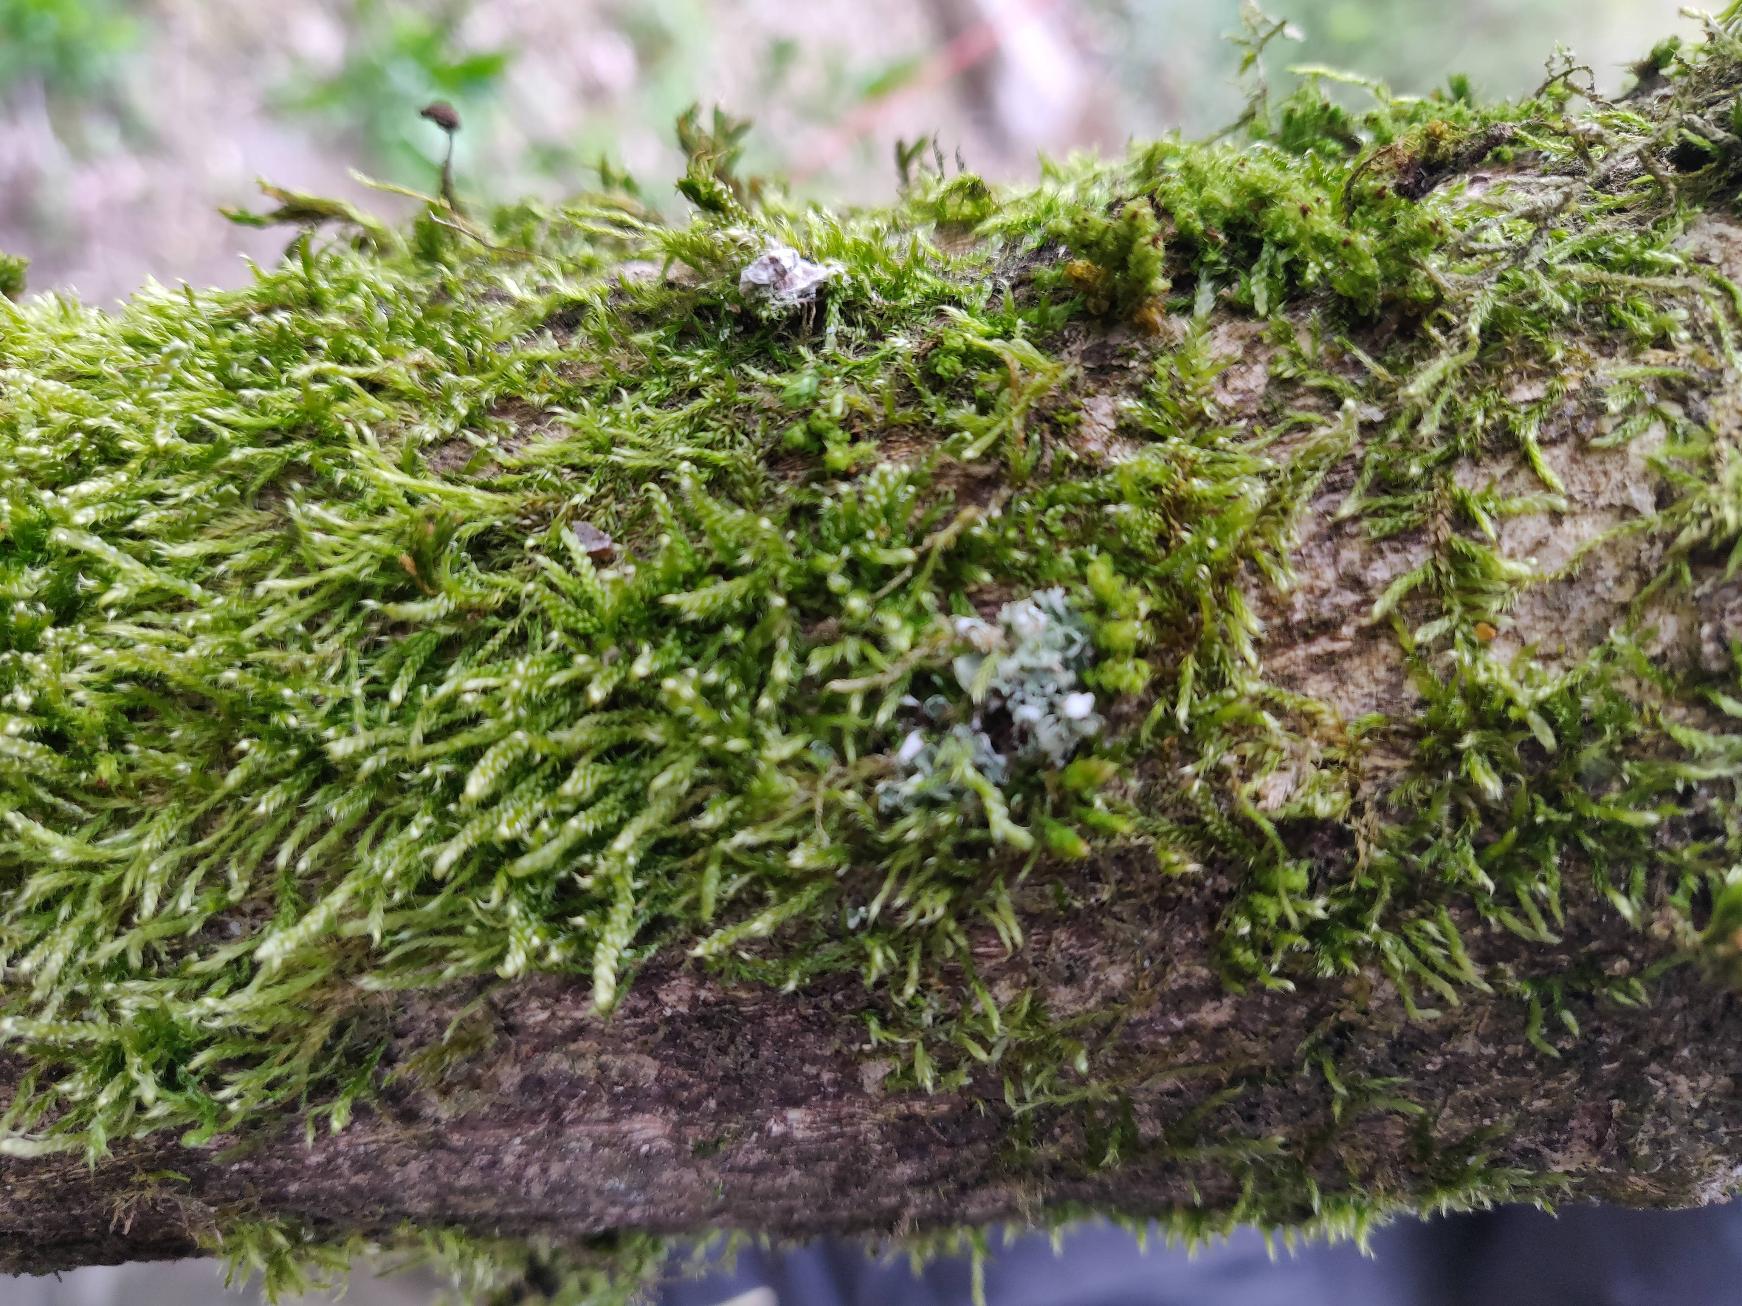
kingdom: Plantae
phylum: Bryophyta
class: Bryopsida
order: Hypnales
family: Hypnaceae
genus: Hypnum
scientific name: Hypnum
